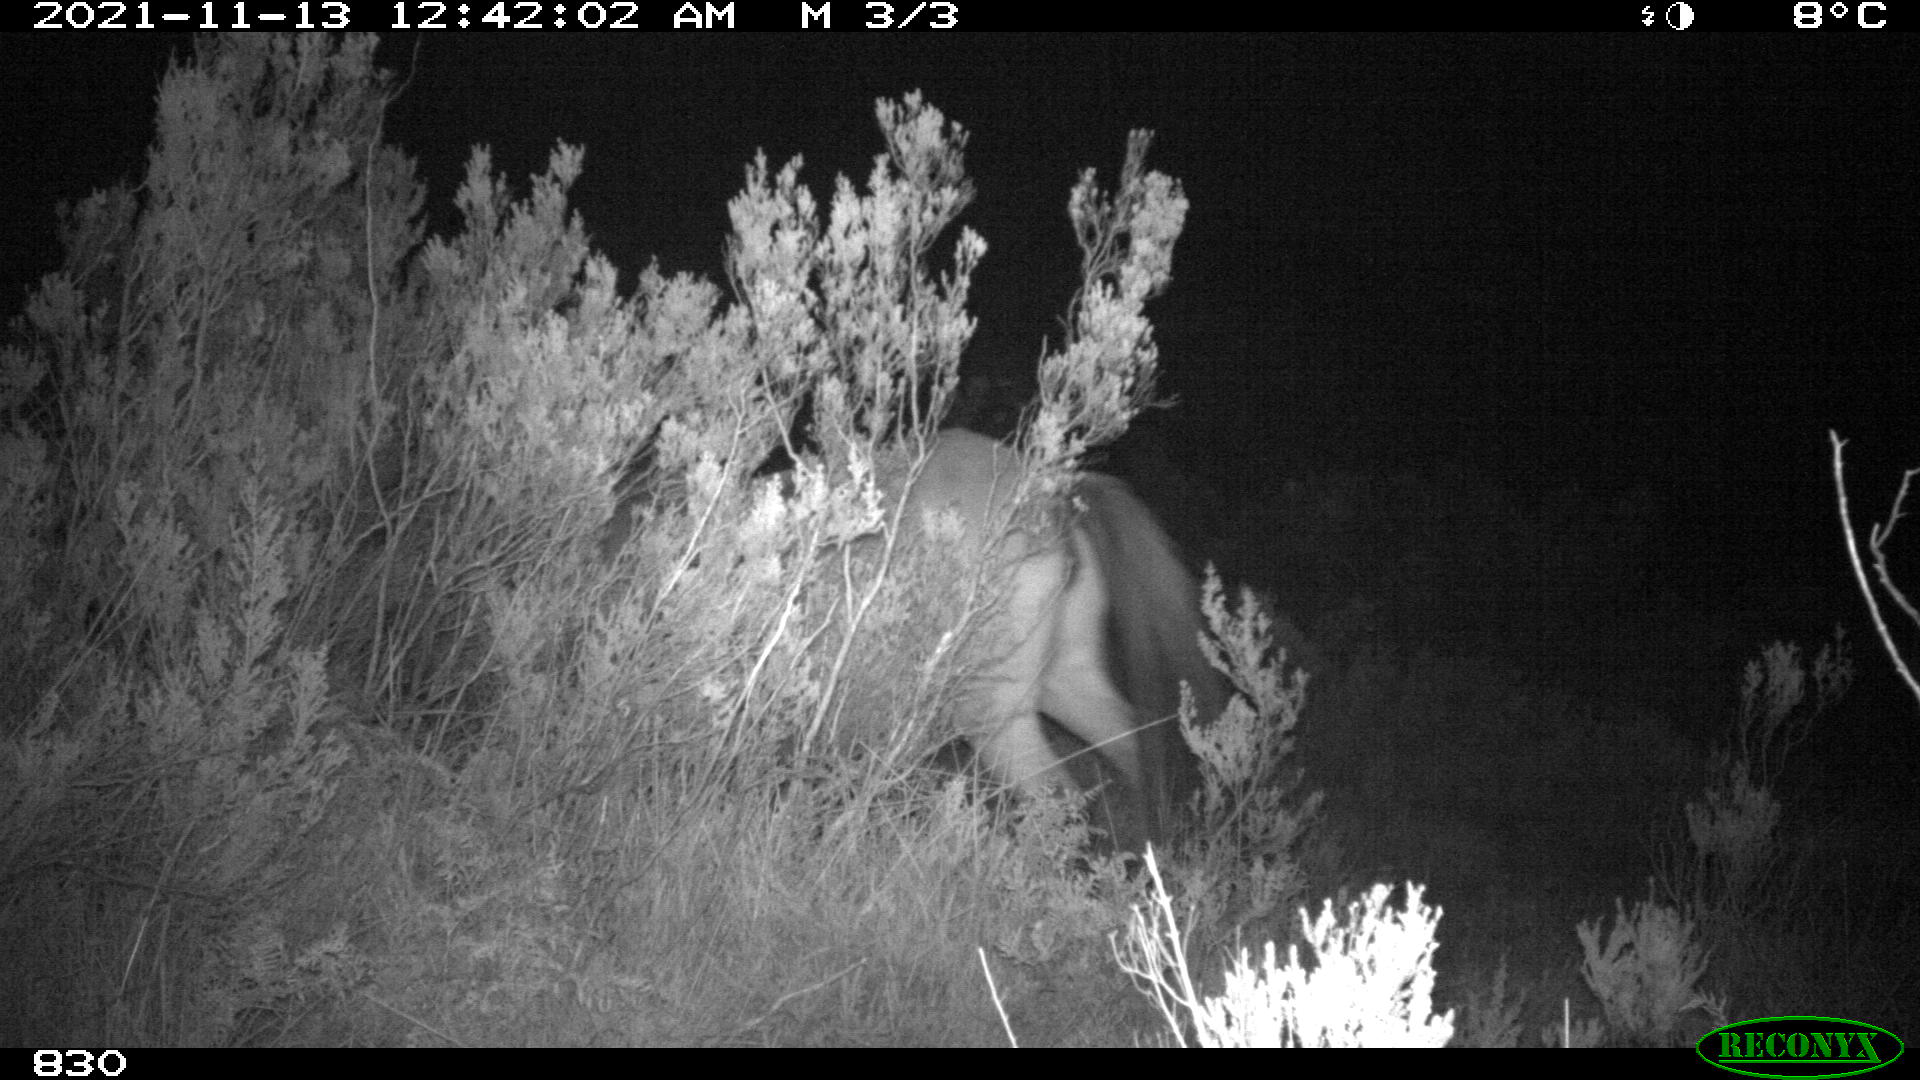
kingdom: Animalia
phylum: Chordata
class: Mammalia
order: Perissodactyla
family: Equidae
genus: Equus
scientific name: Equus caballus
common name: Horse
